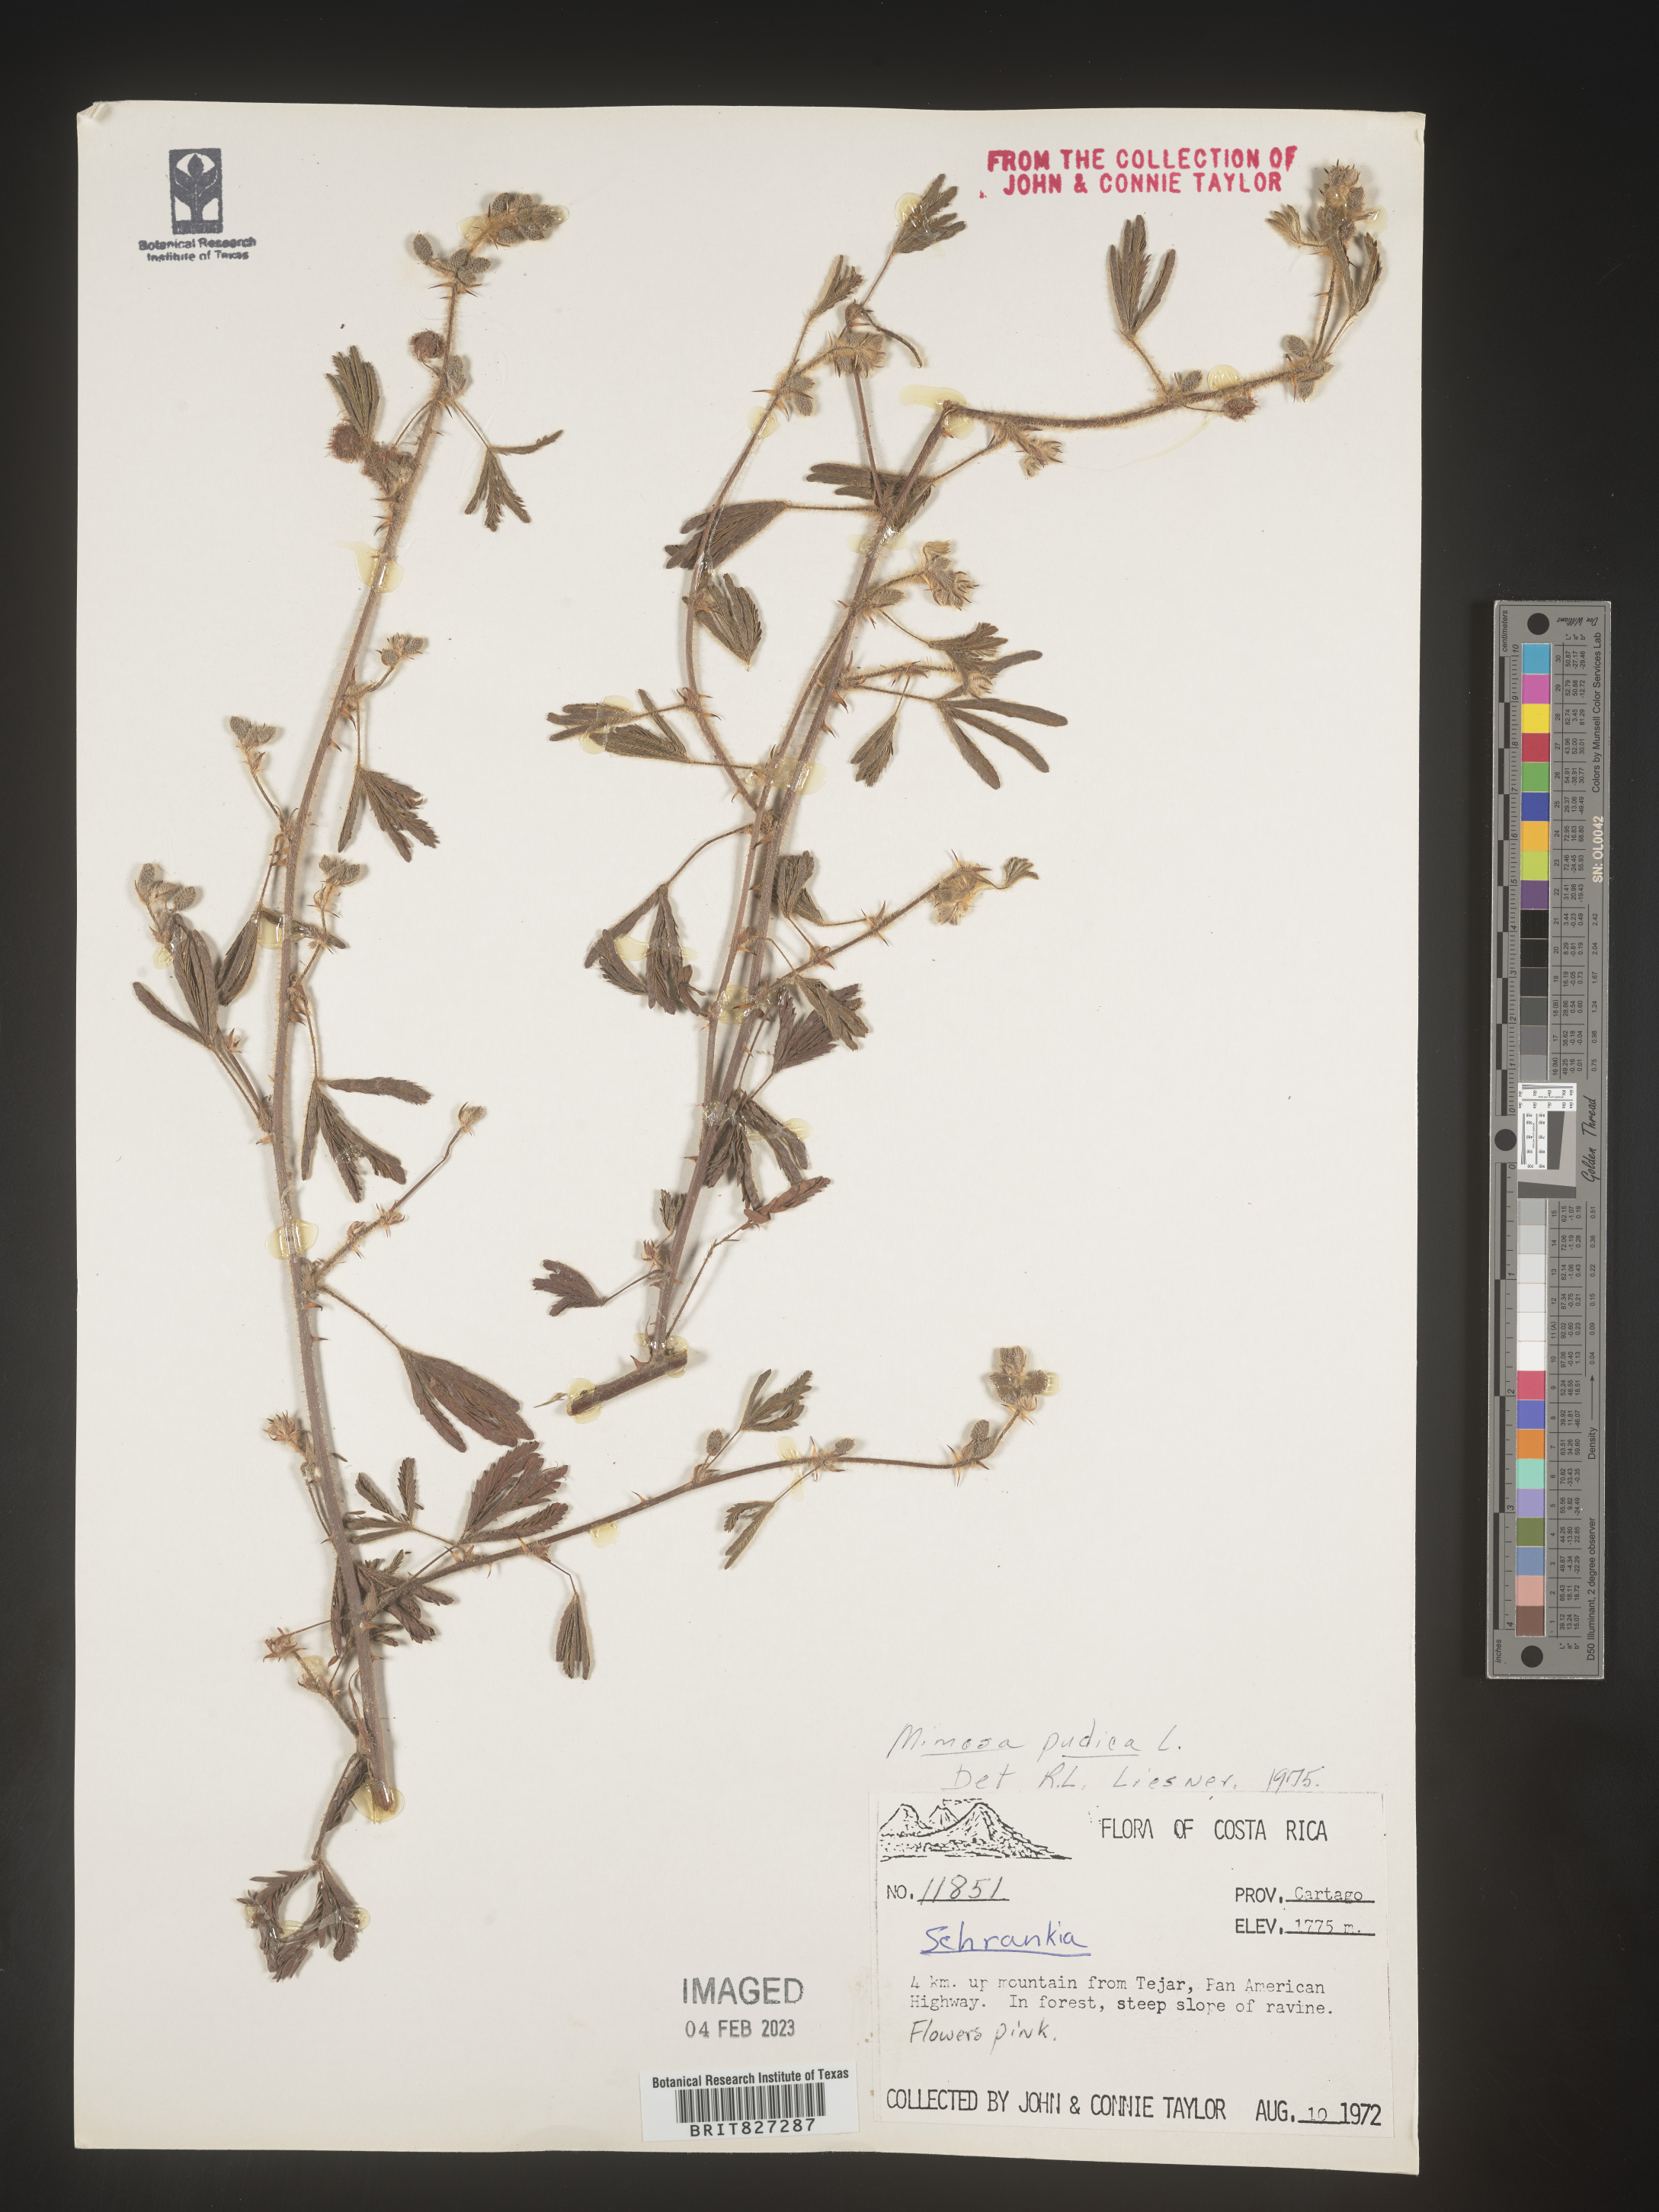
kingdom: Plantae
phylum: Tracheophyta
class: Magnoliopsida
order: Fabales
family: Fabaceae
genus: Mimosa
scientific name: Mimosa
